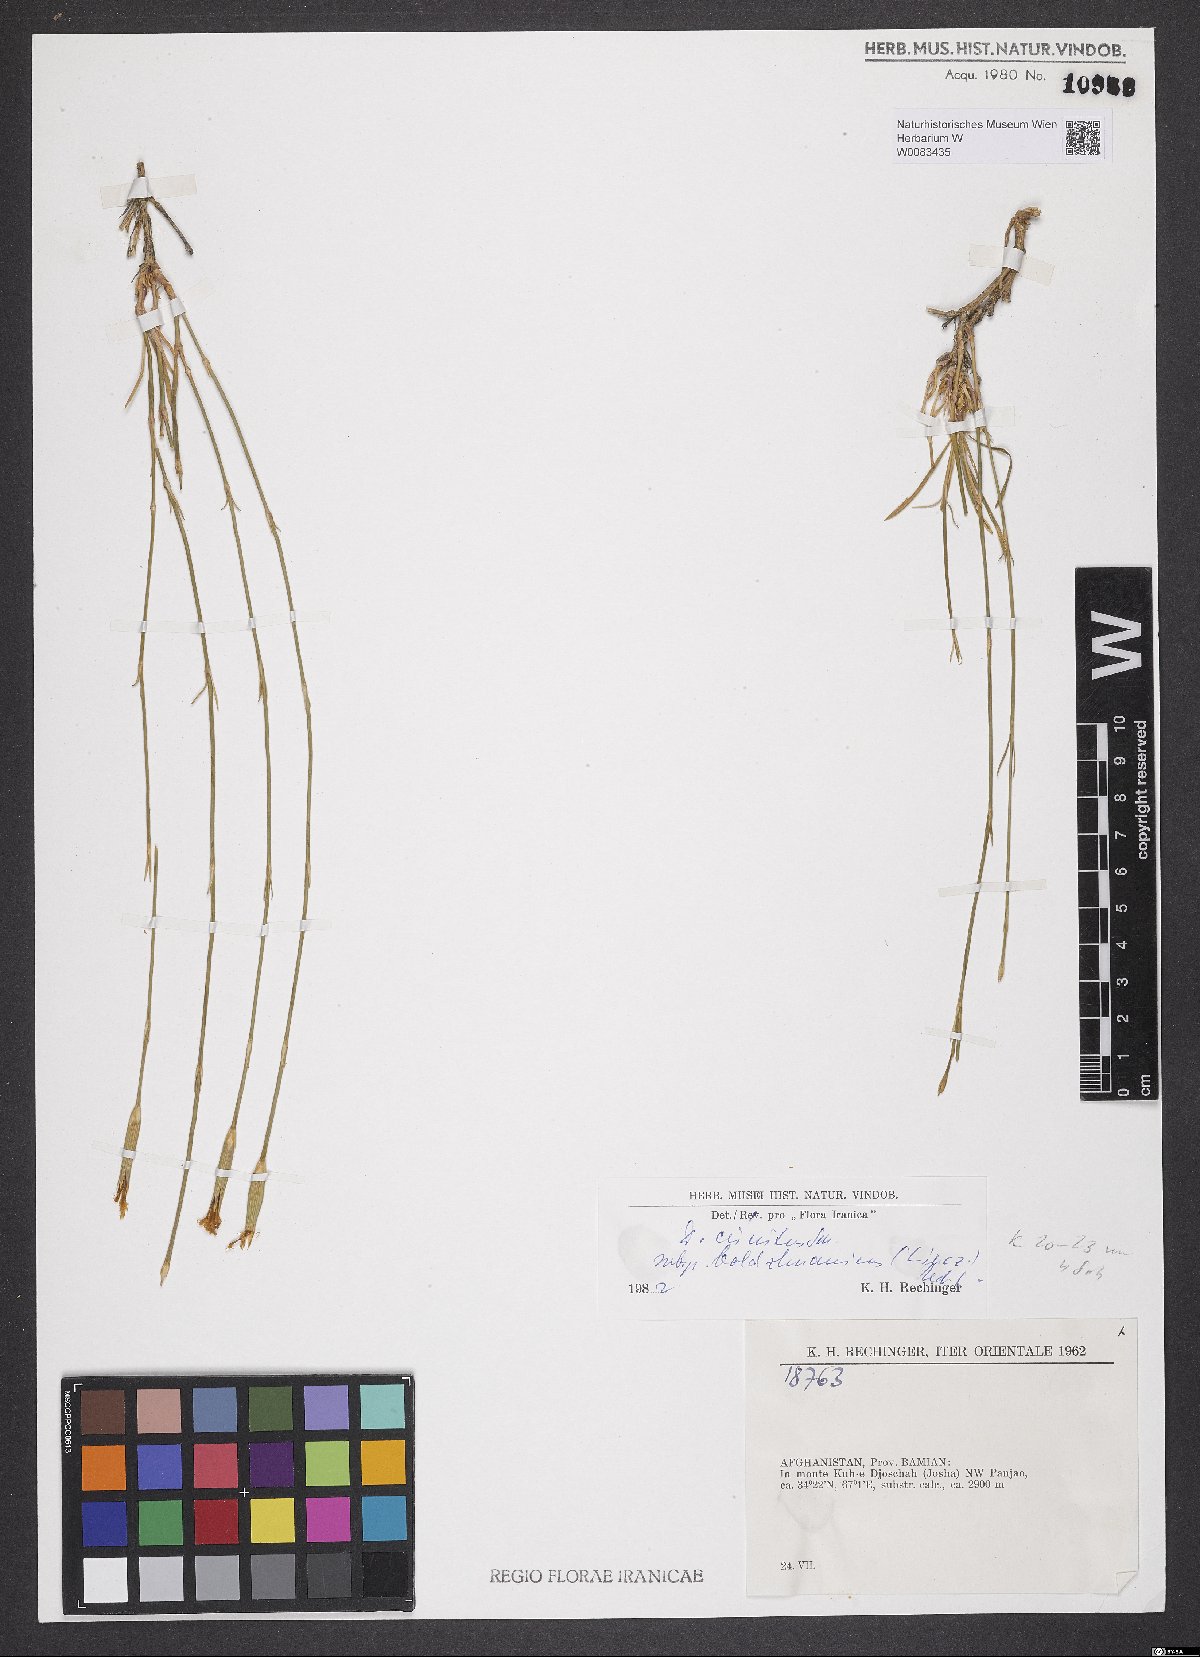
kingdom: Plantae
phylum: Tracheophyta
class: Magnoliopsida
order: Caryophyllales
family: Caryophyllaceae
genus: Dianthus
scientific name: Dianthus crinitus
